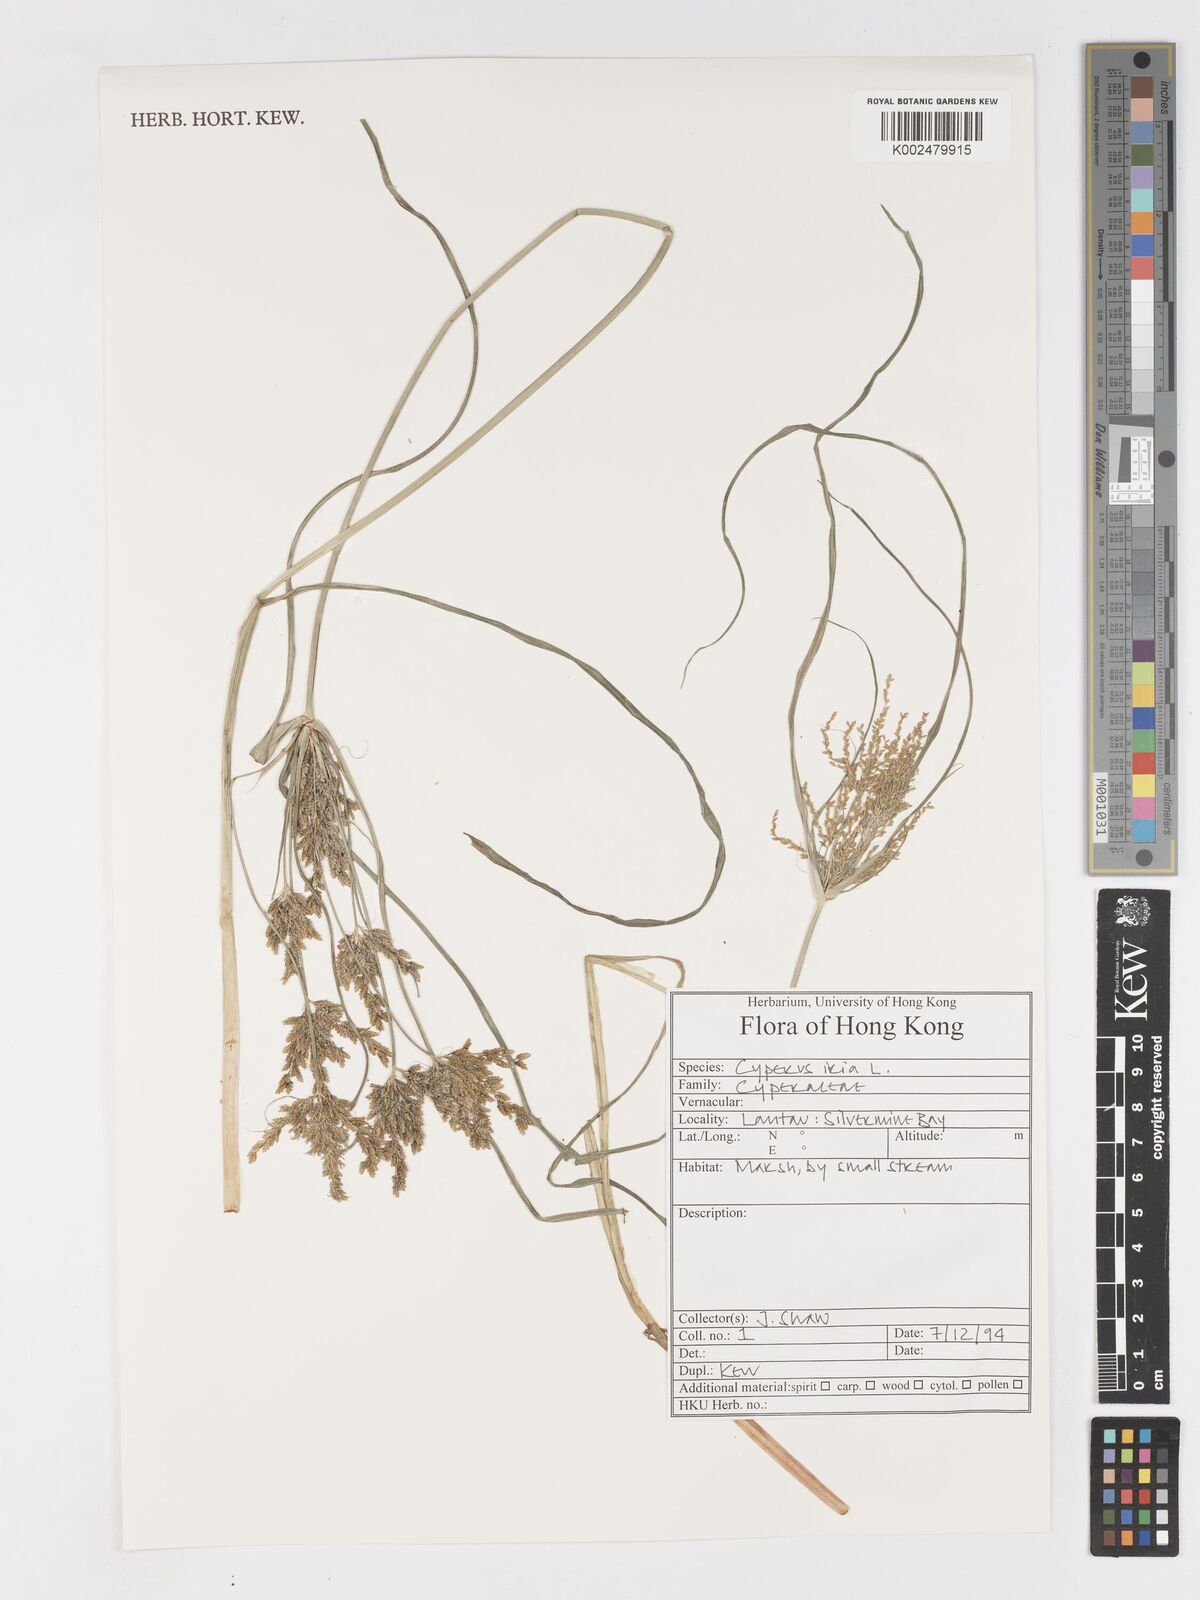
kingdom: Plantae
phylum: Tracheophyta
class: Liliopsida
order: Poales
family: Cyperaceae
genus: Cyperus
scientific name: Cyperus iria
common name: Ricefield flatsedge
